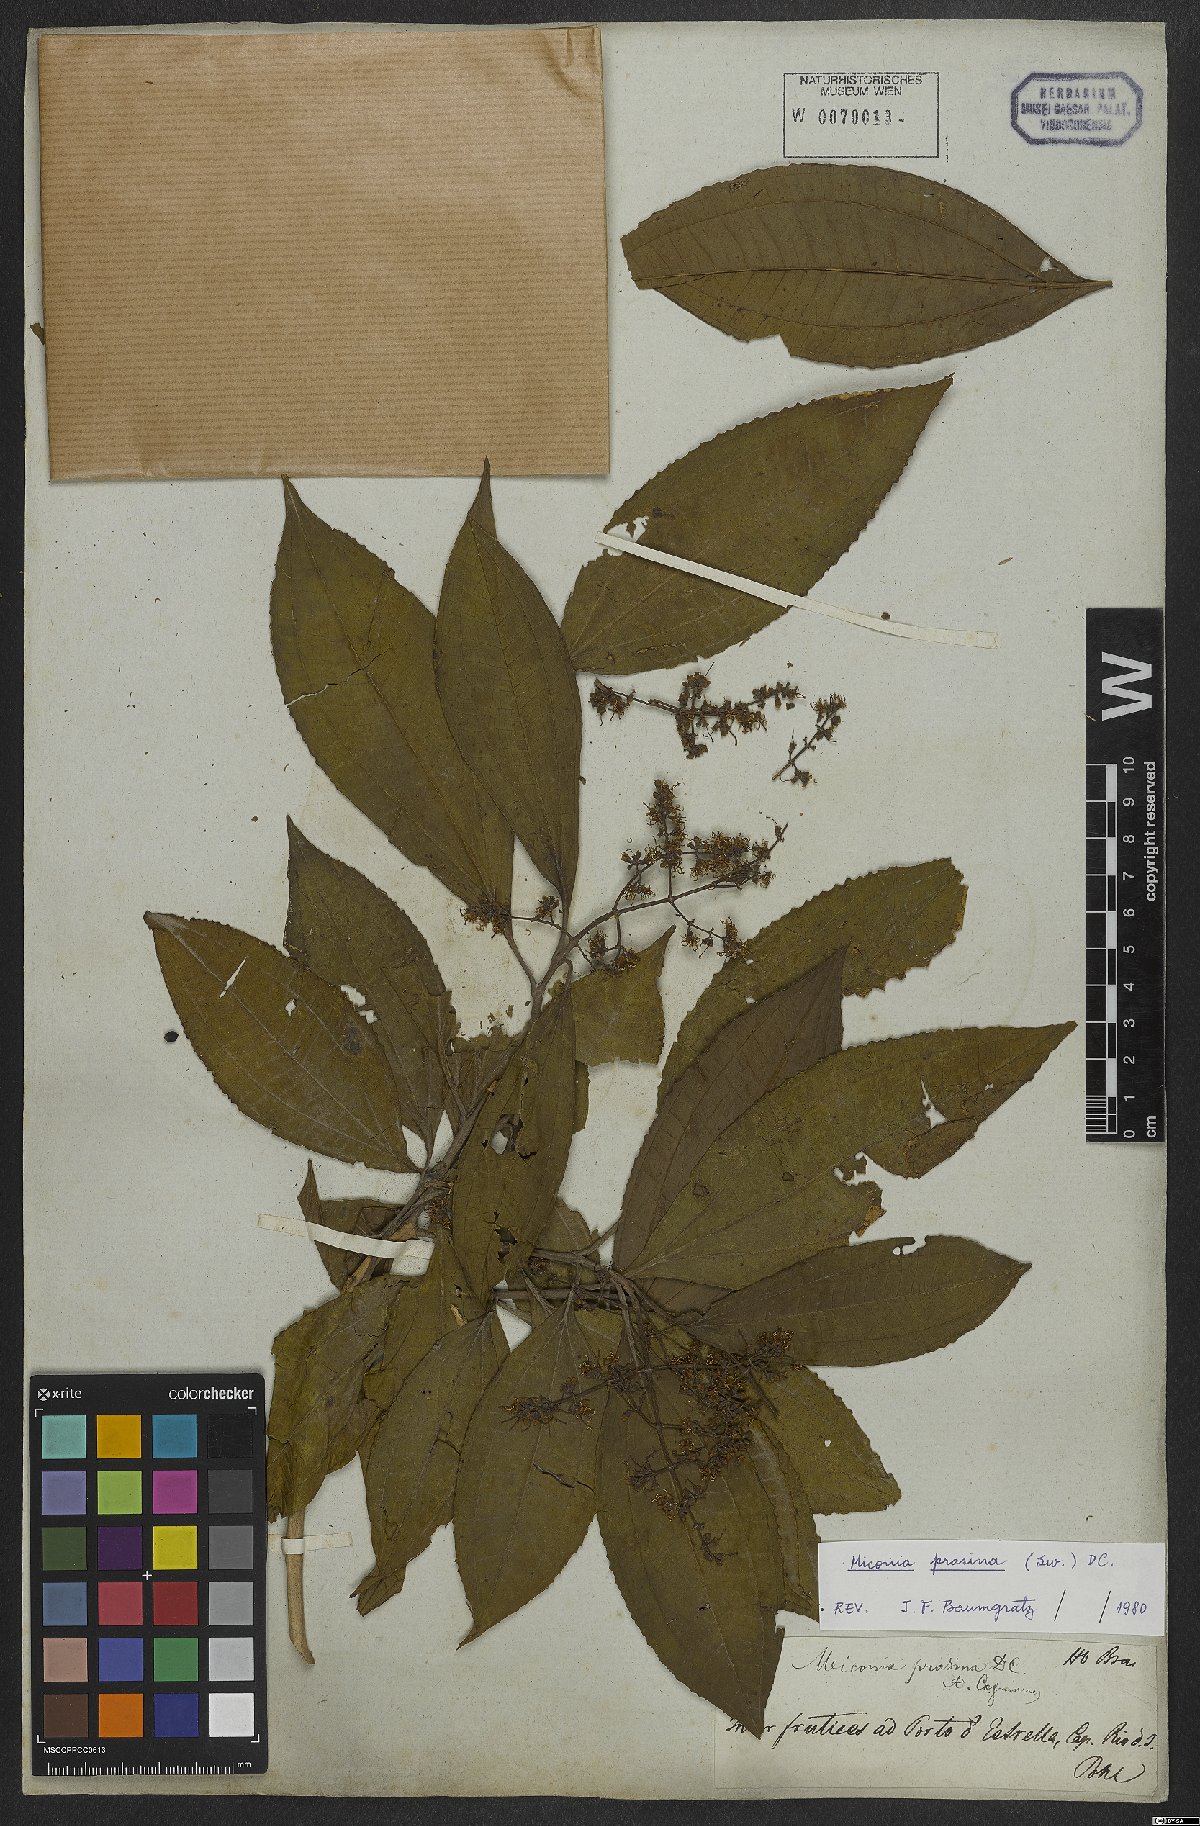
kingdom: Plantae
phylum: Tracheophyta
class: Magnoliopsida
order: Myrtales
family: Melastomataceae
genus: Miconia
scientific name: Miconia prasina
